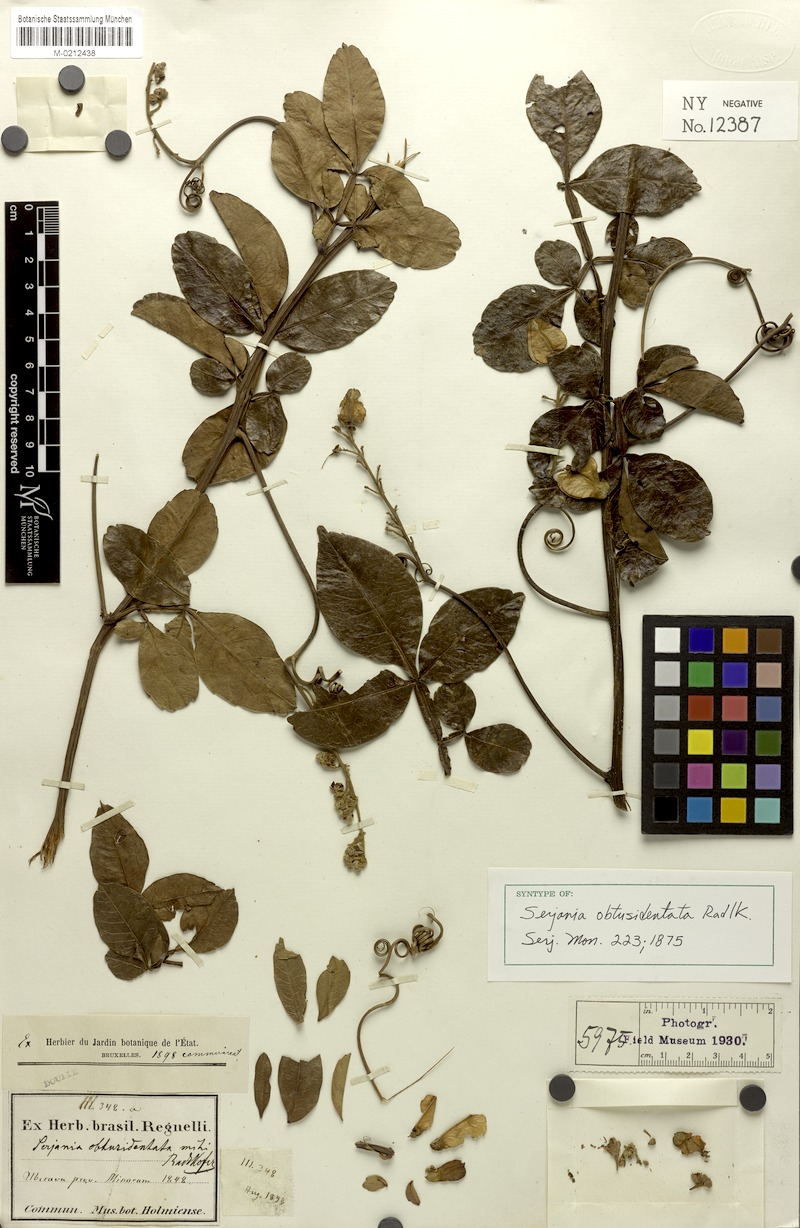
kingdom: Plantae
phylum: Tracheophyta
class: Magnoliopsida
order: Sapindales
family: Sapindaceae
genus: Serjania
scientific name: Serjania obtusidentata
